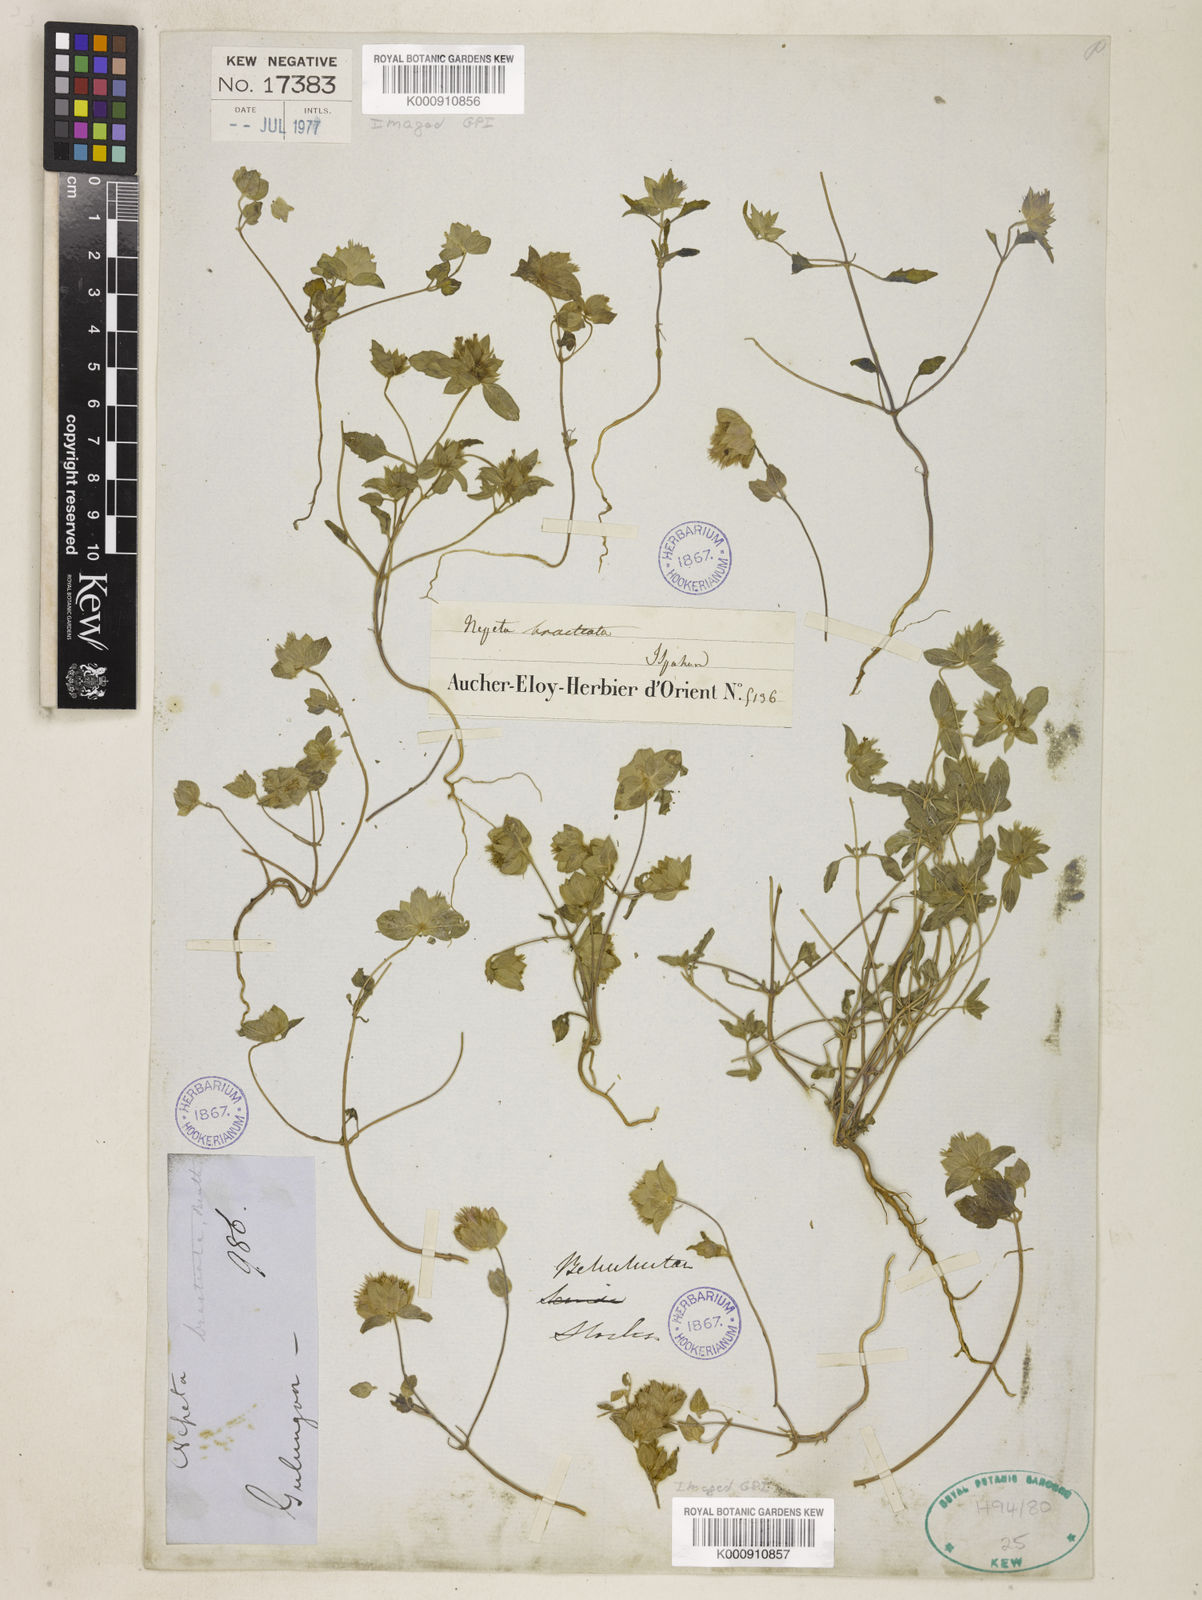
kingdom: Plantae
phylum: Tracheophyta
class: Magnoliopsida
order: Lamiales
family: Lamiaceae
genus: Nepeta
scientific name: Nepeta bracteata
